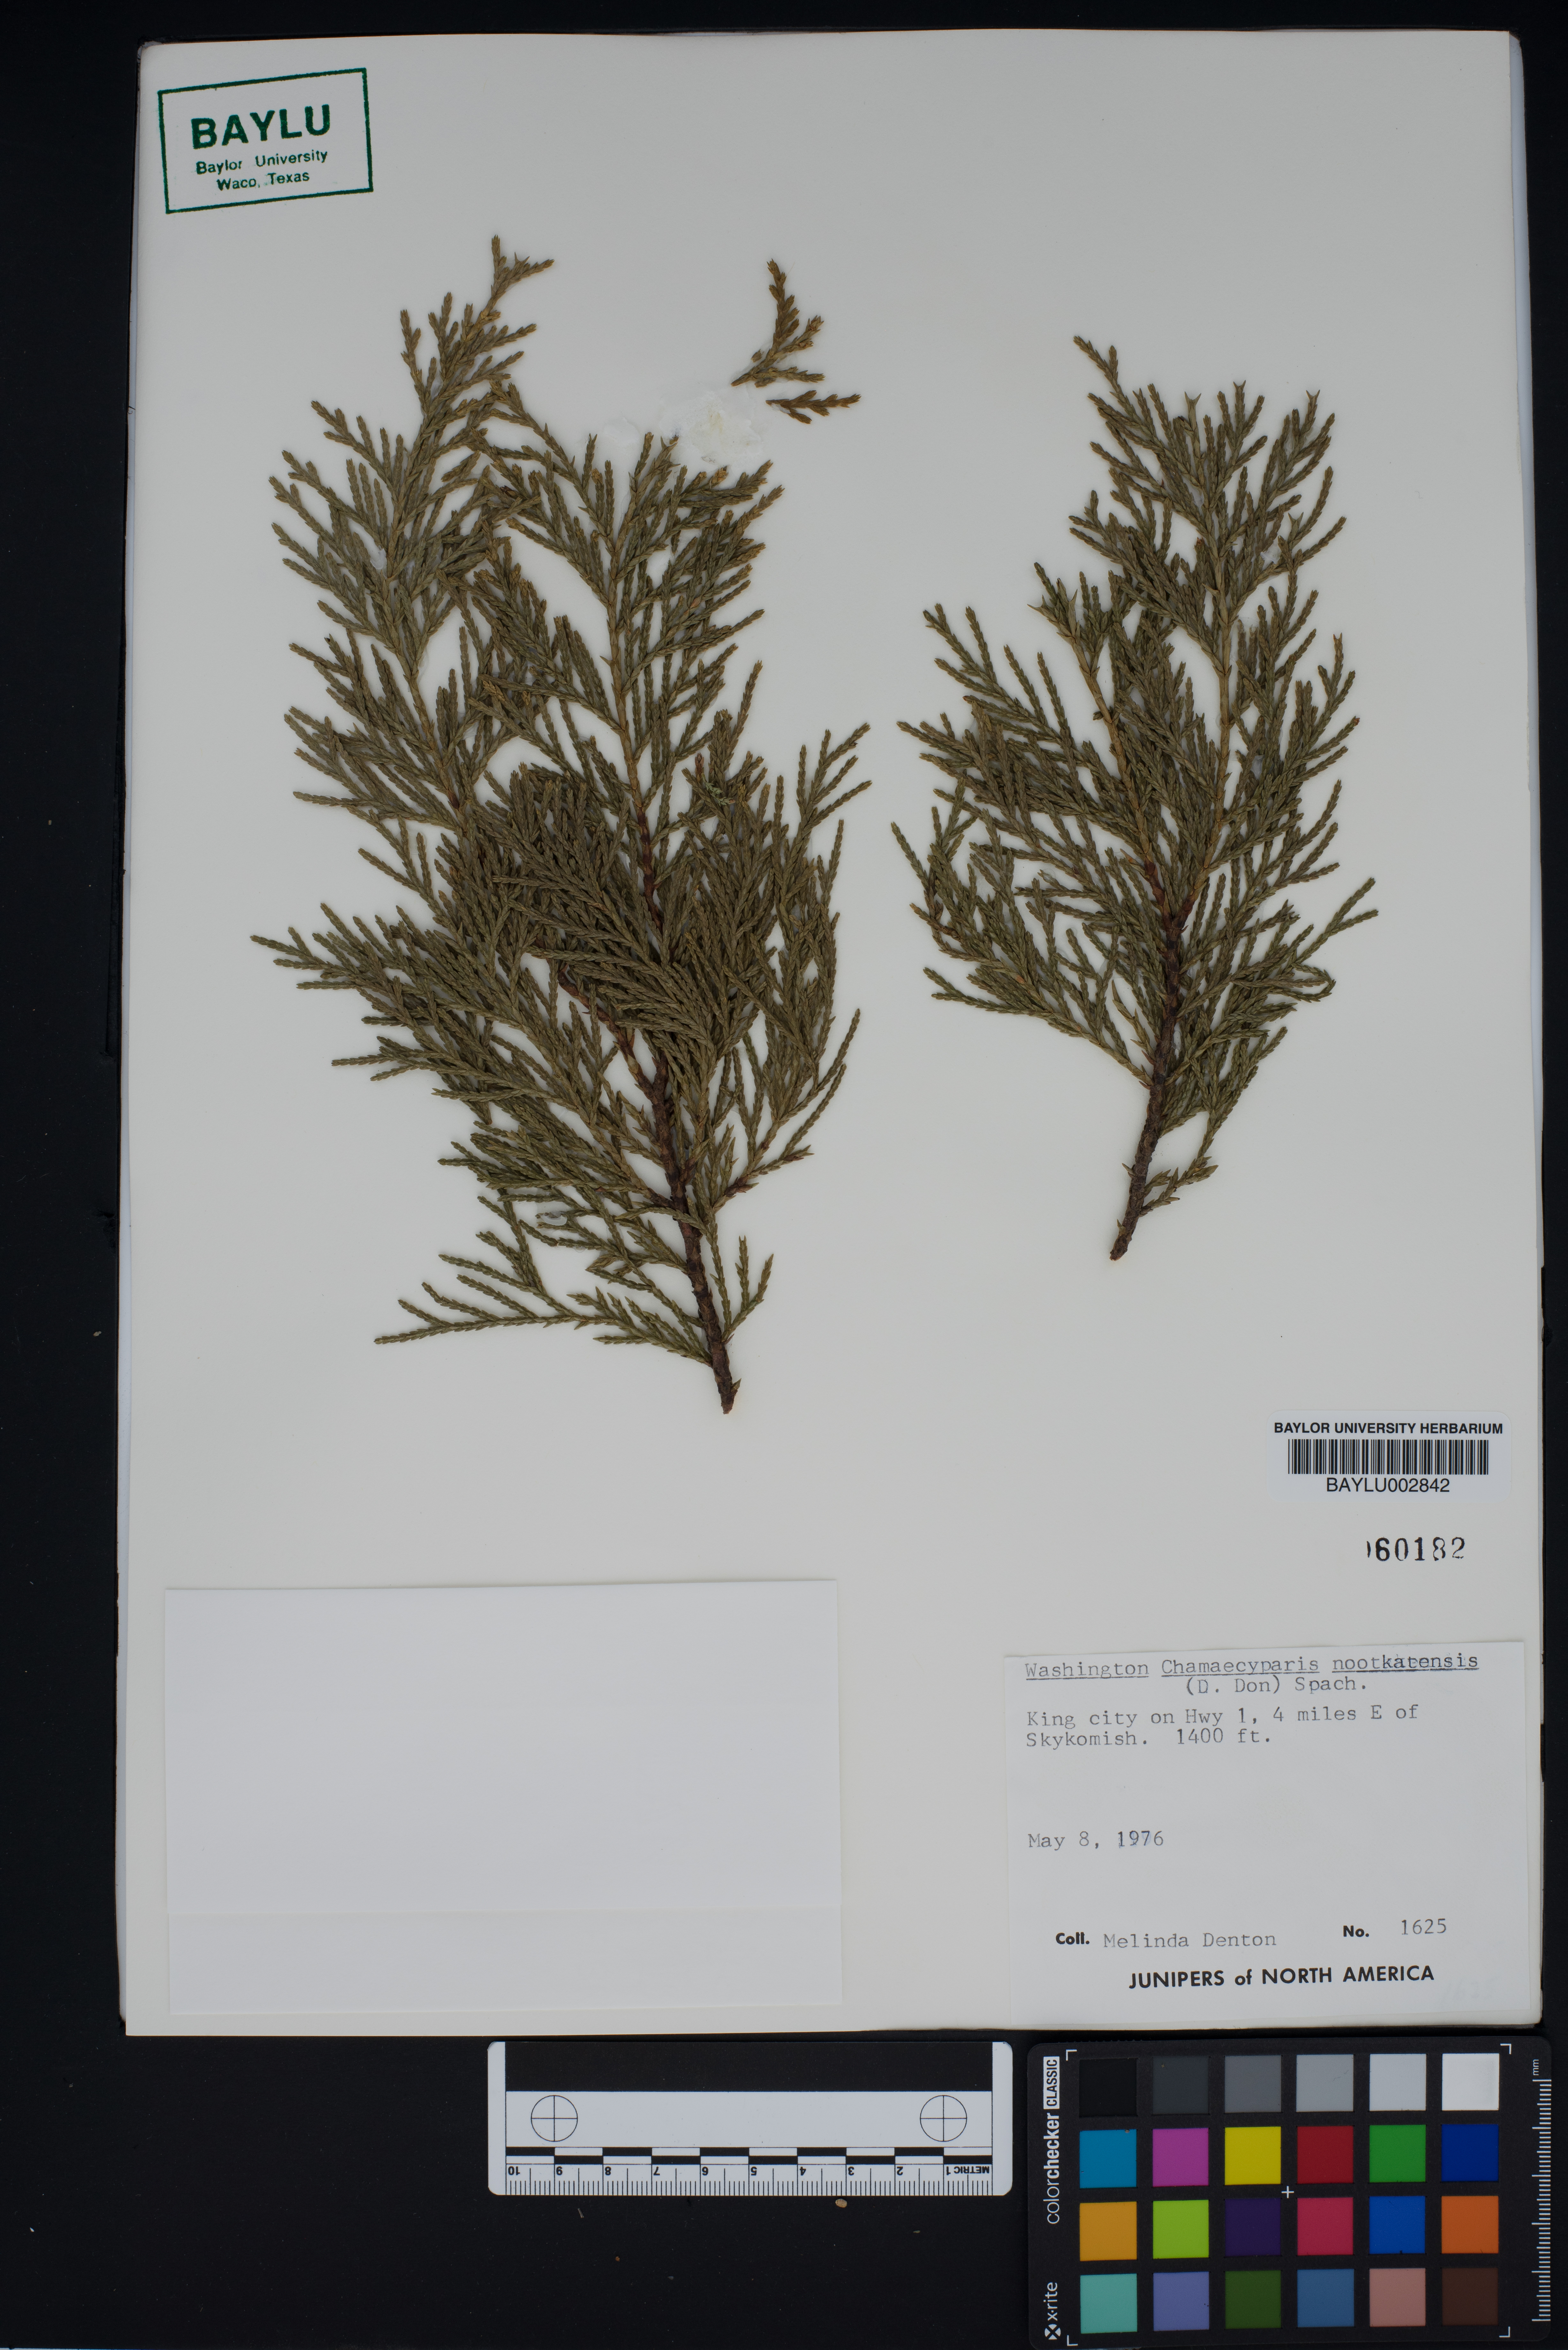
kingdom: Plantae
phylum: Tracheophyta
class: Pinopsida
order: Pinales
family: Cupressaceae
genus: Xanthocyparis
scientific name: Xanthocyparis nootkatensis
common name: Nootka cypress
